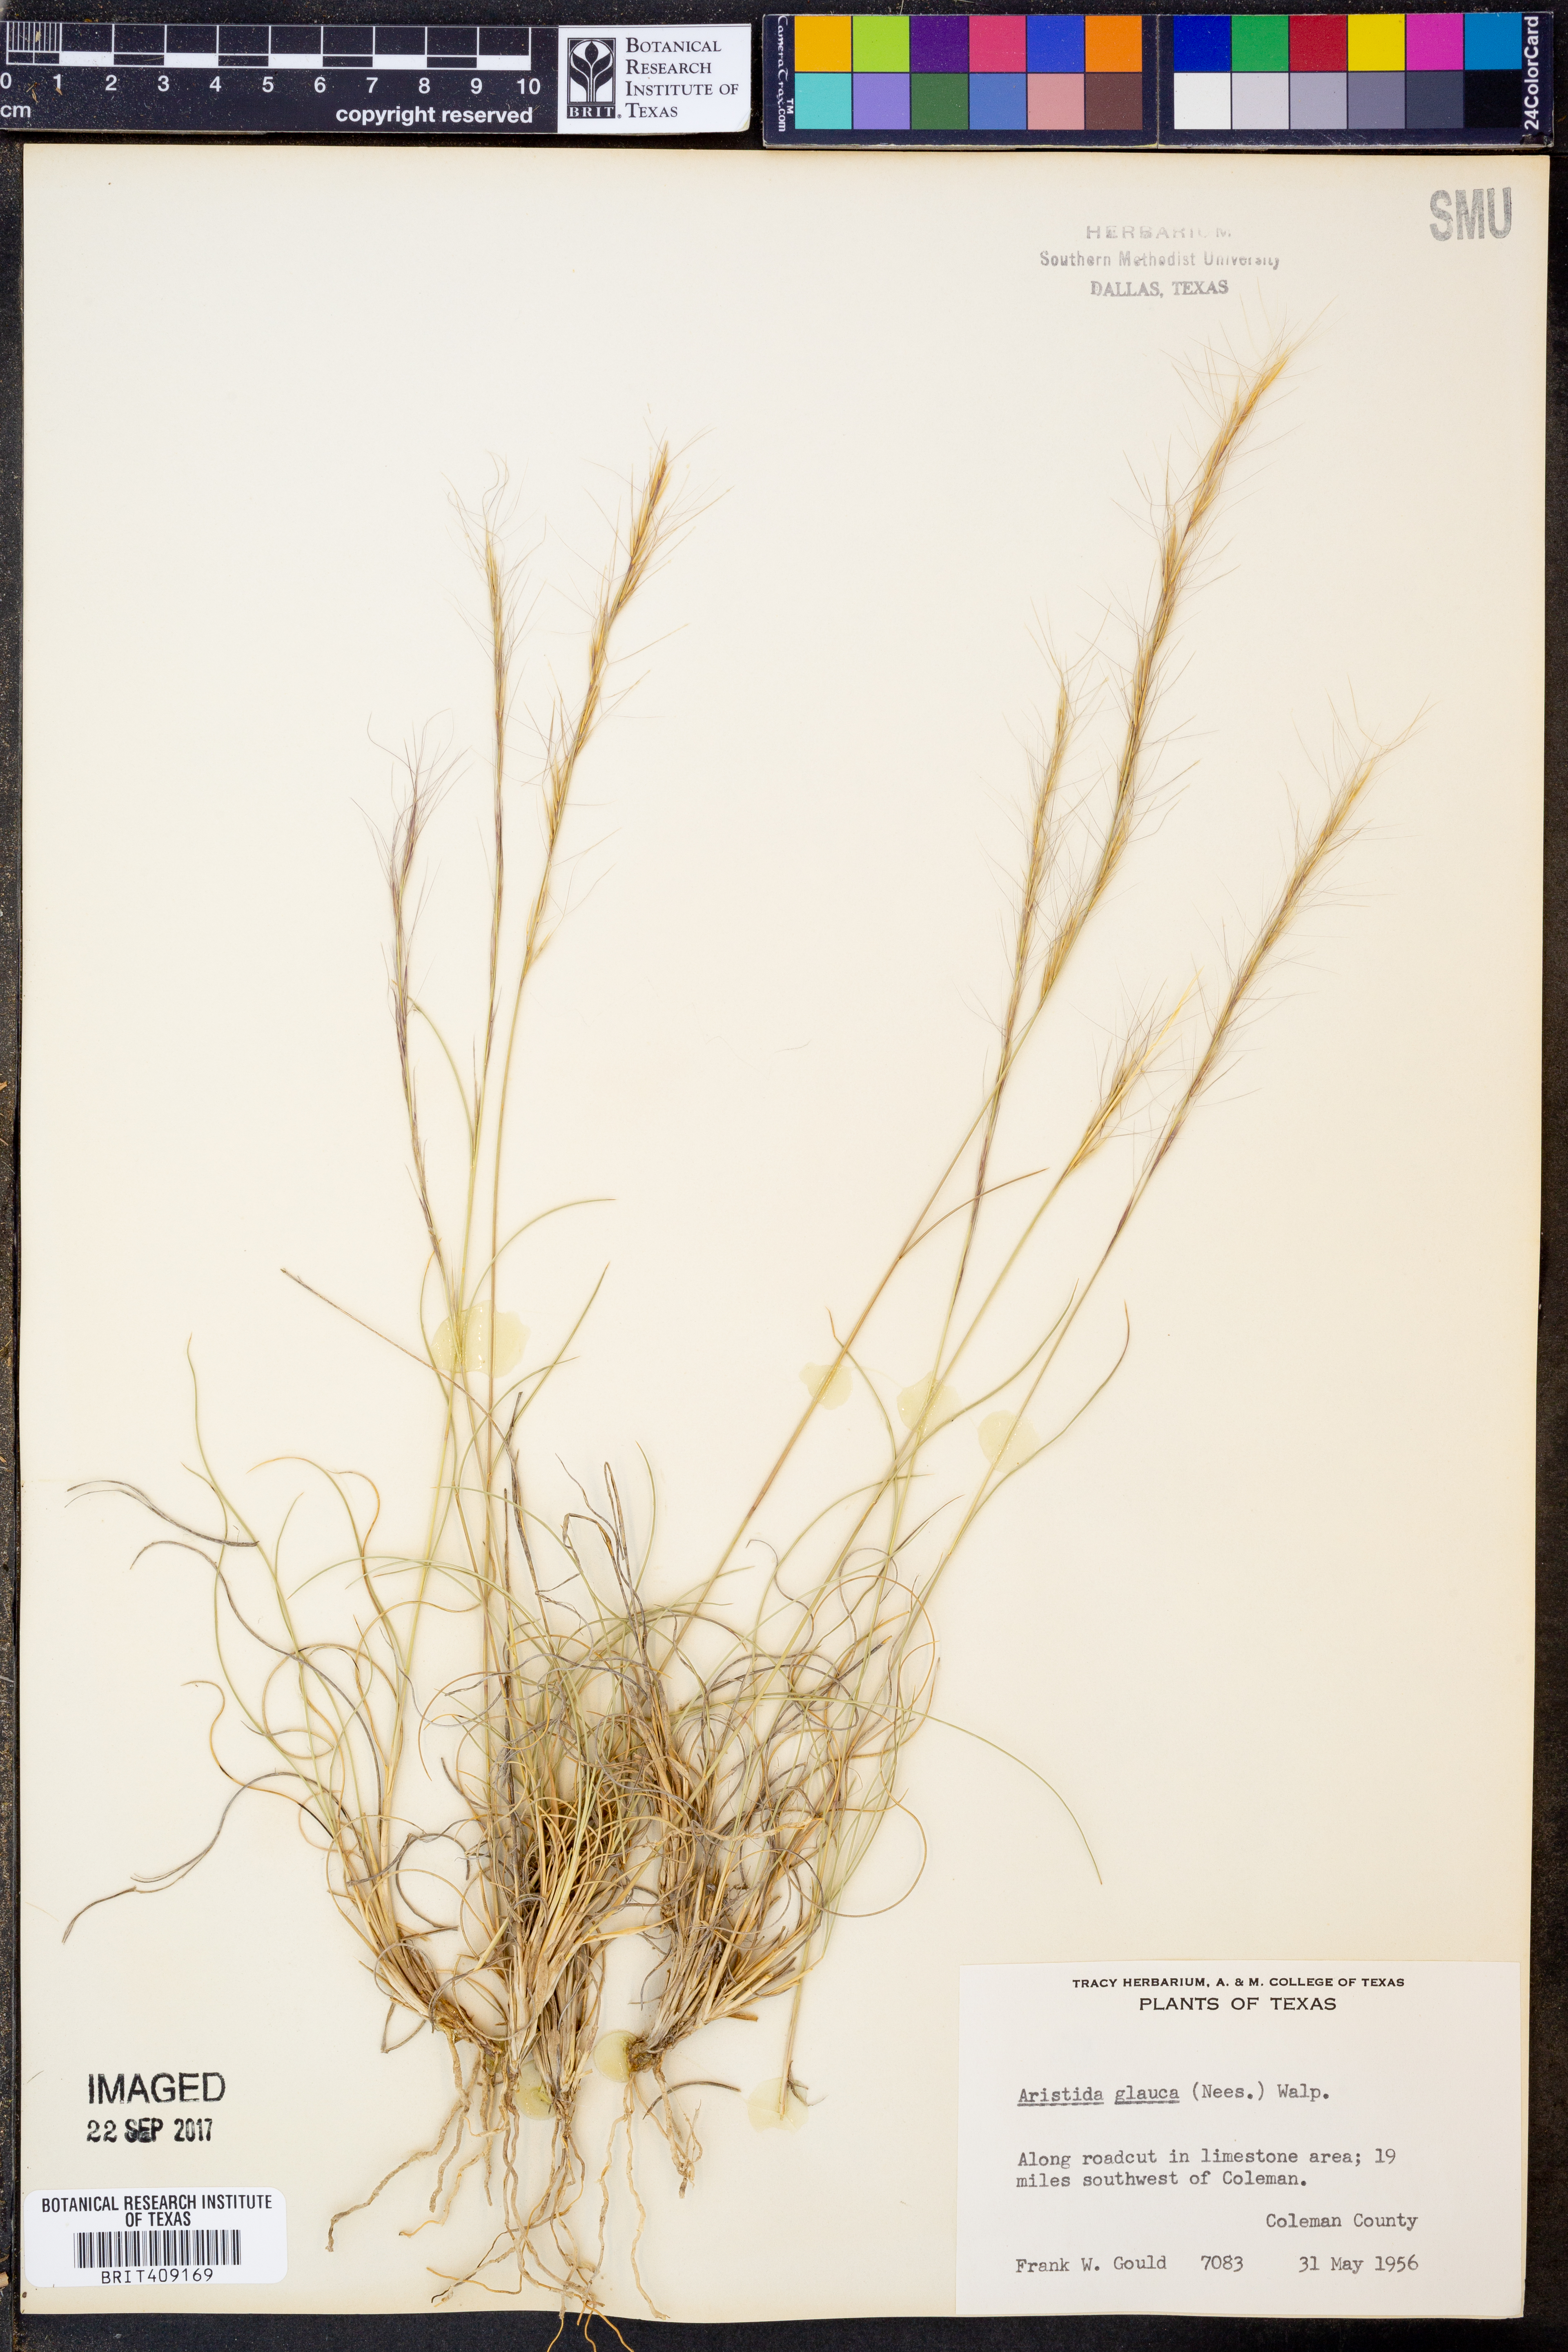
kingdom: Plantae
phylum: Tracheophyta
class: Liliopsida
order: Poales
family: Poaceae
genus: Aristida
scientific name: Aristida glauca
